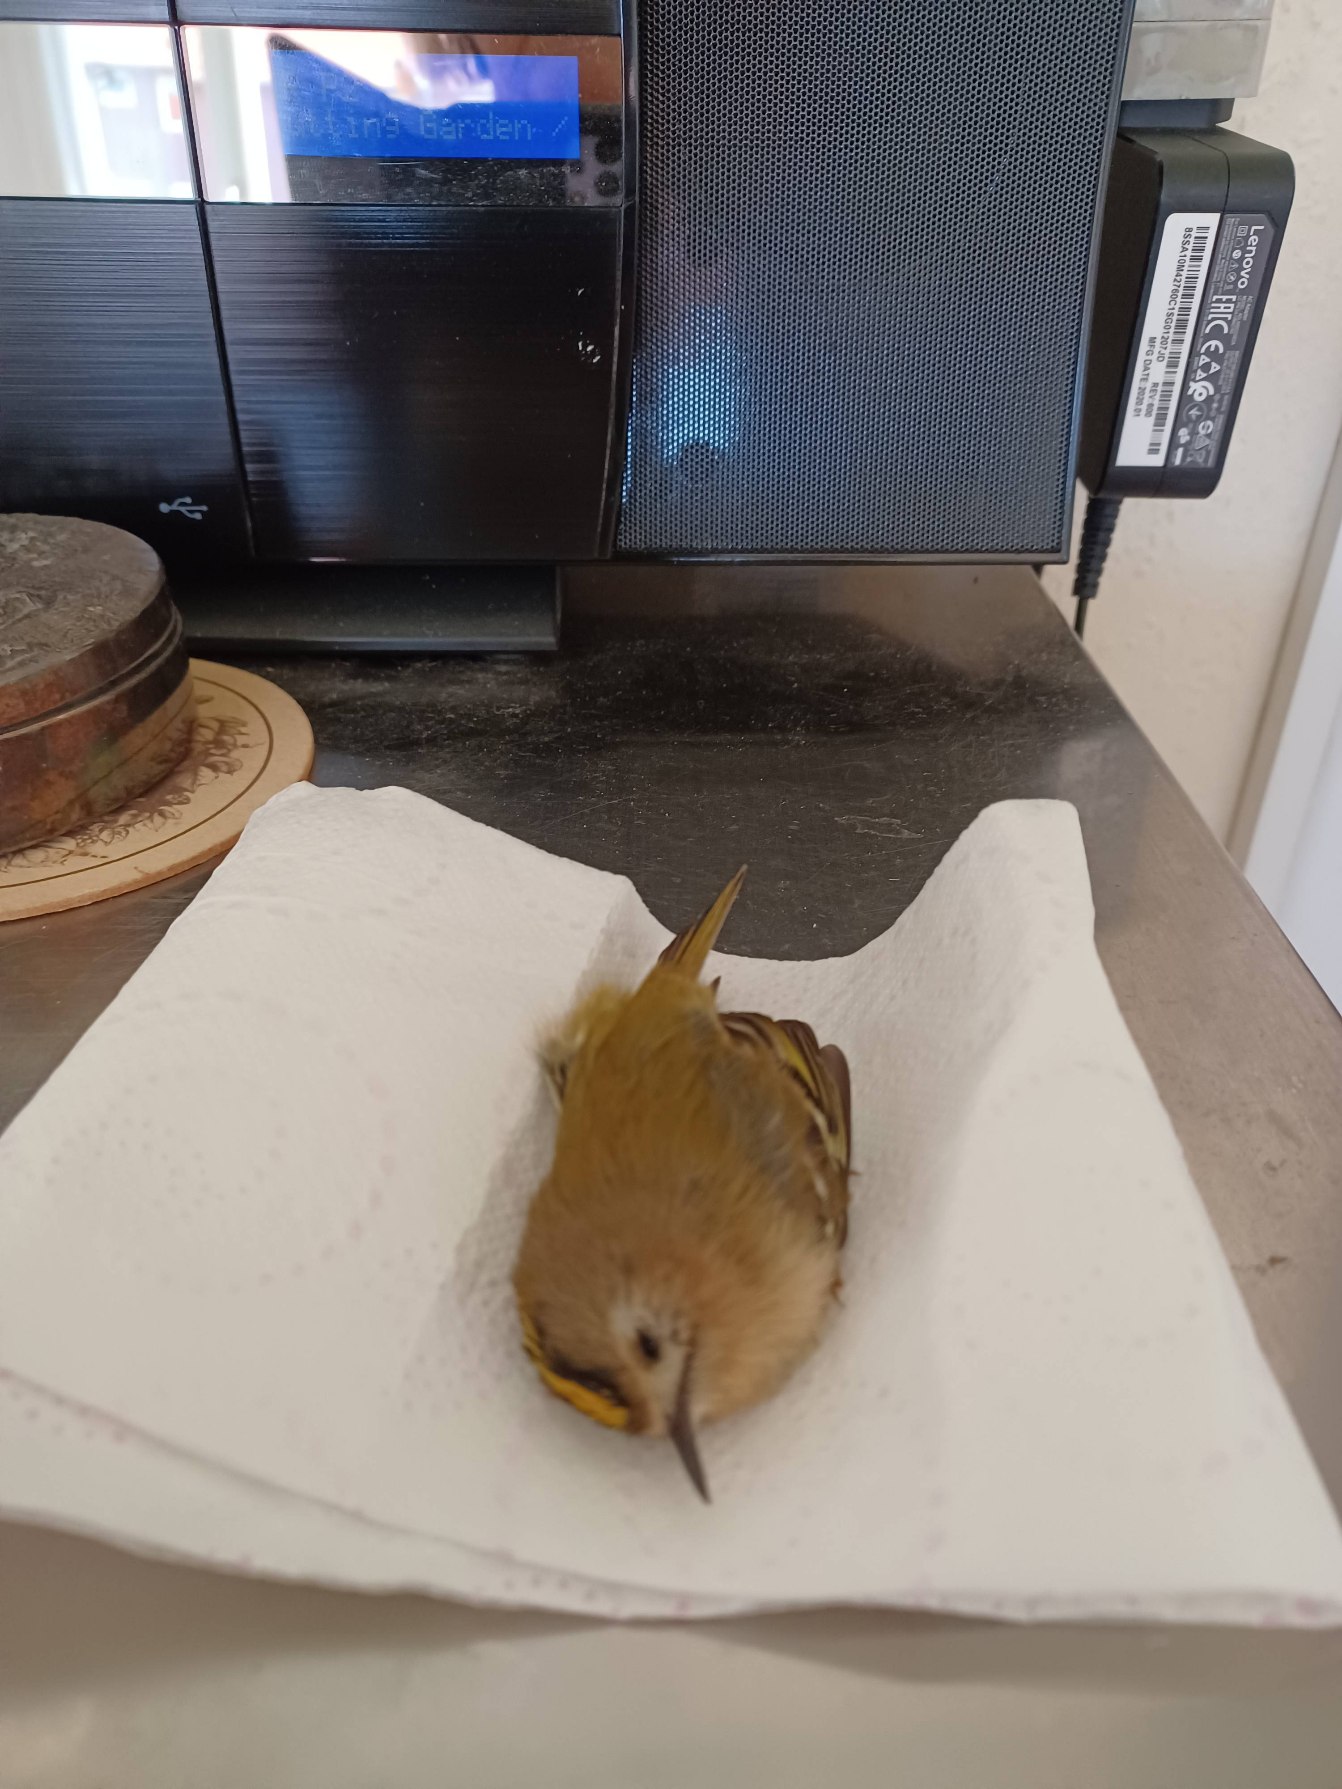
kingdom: Animalia
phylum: Chordata
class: Aves
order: Passeriformes
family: Regulidae
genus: Regulus
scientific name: Regulus regulus
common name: Fuglekonge
